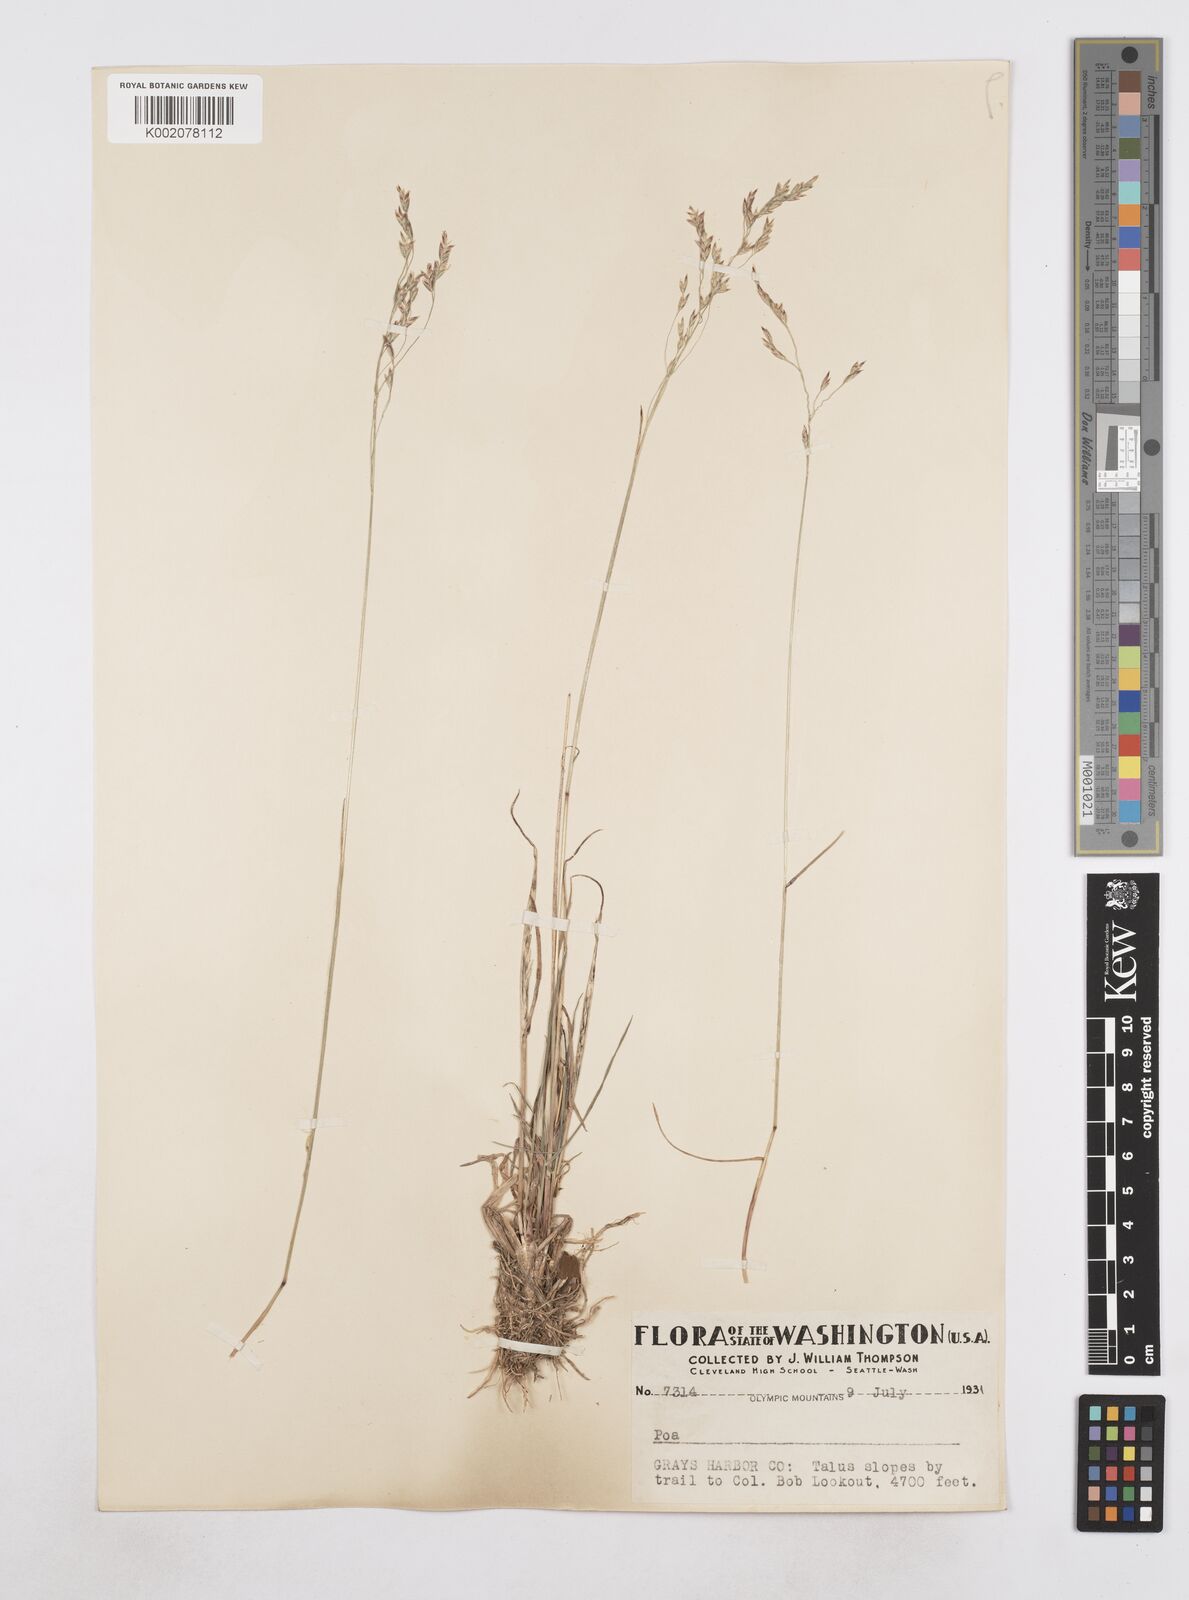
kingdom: Plantae
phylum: Tracheophyta
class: Liliopsida
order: Poales
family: Poaceae
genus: Poa
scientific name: Poa
